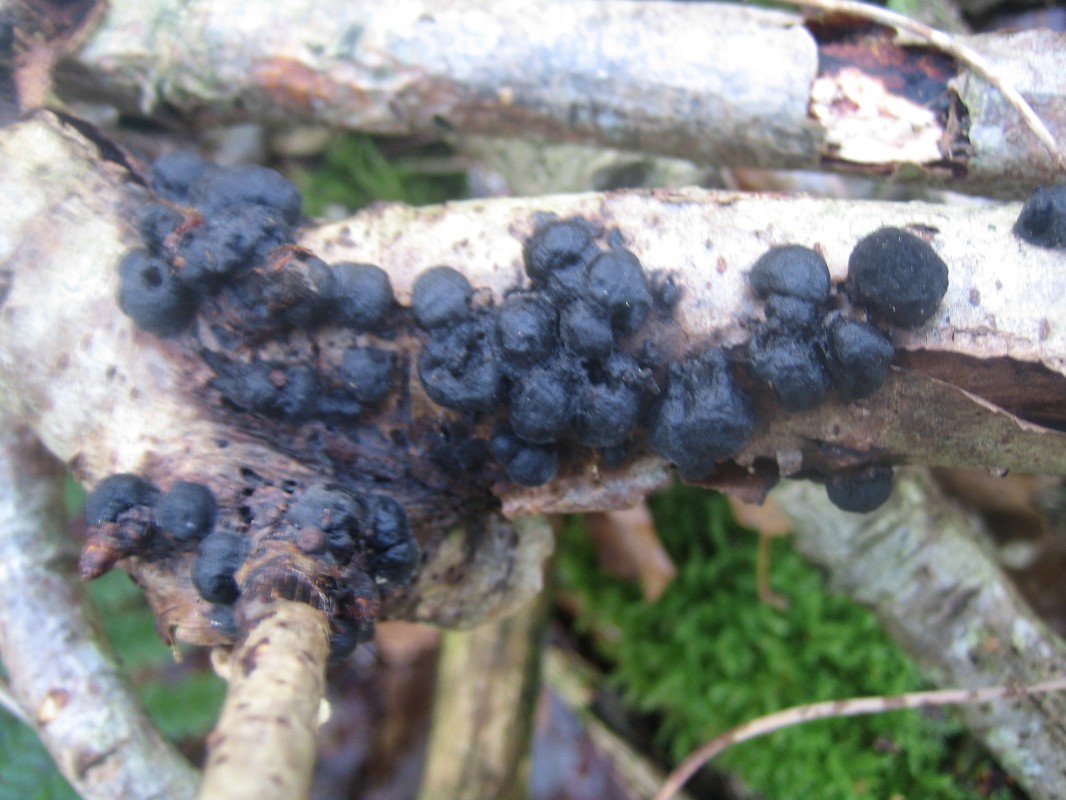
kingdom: Fungi
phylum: Ascomycota
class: Sordariomycetes
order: Xylariales
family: Hypoxylaceae
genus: Hypoxylon
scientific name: Hypoxylon
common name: kulbær
